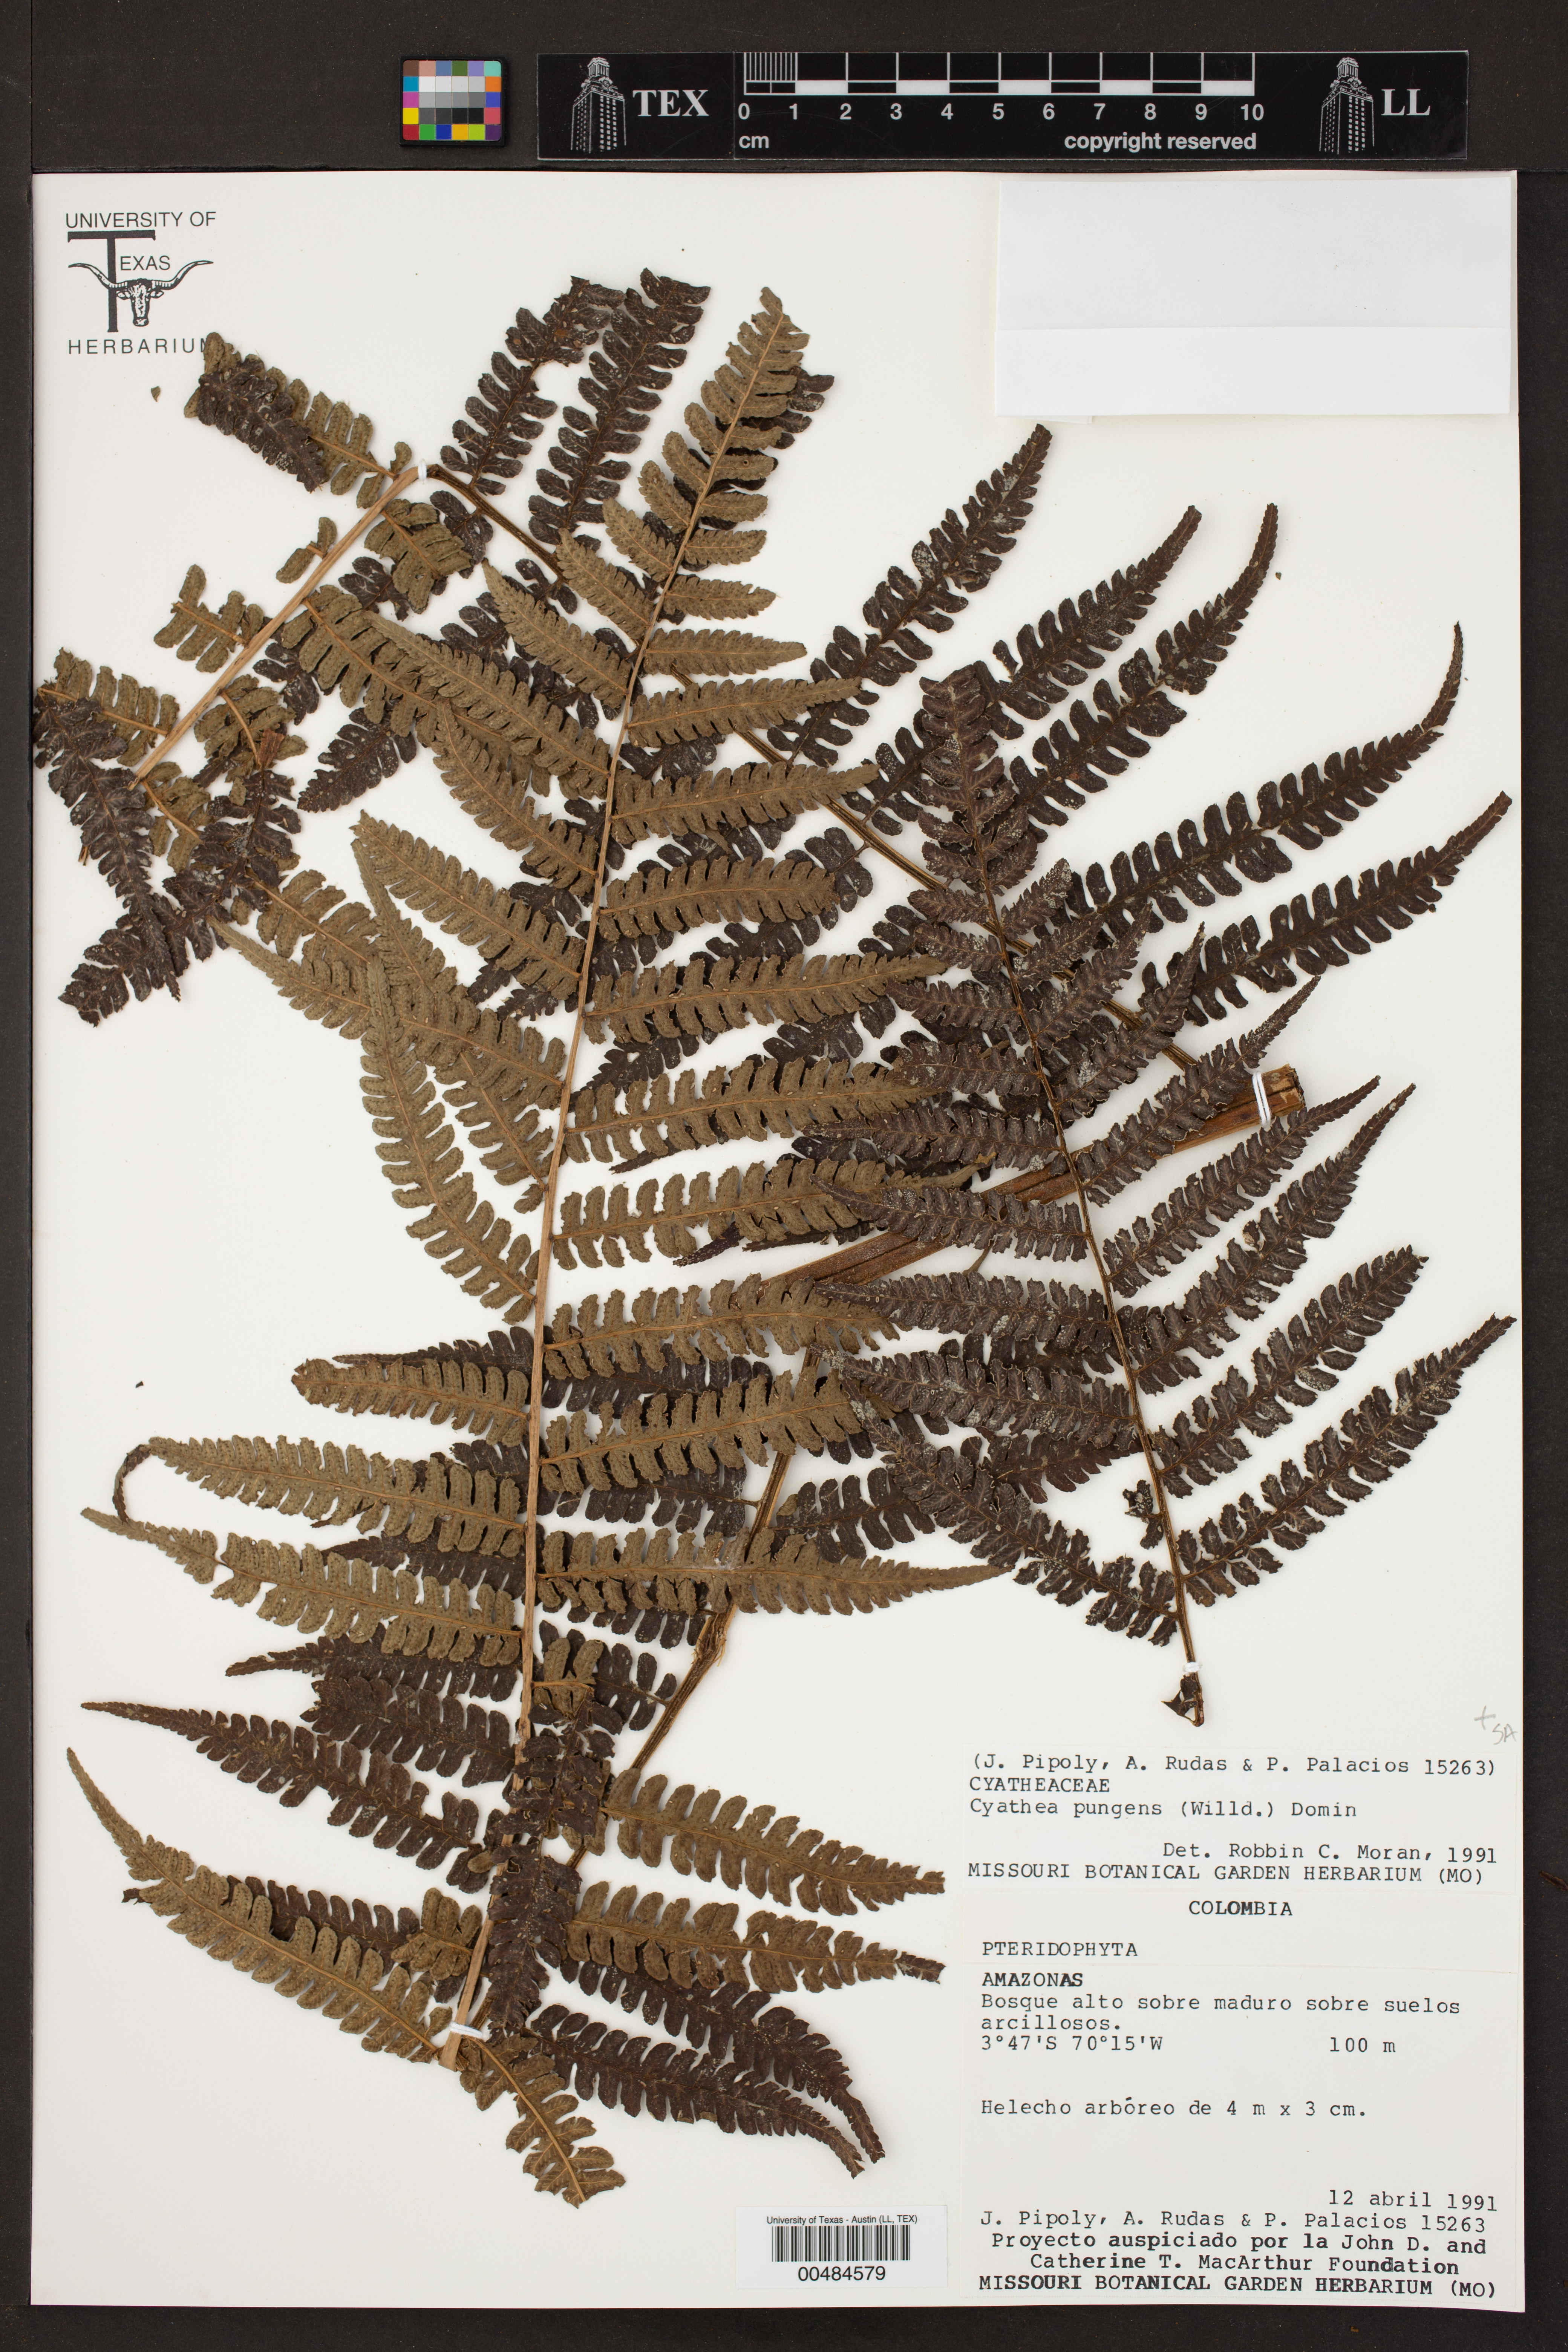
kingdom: Plantae
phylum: Tracheophyta
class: Polypodiopsida
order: Cyatheales
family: Cyatheaceae
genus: Cyathea
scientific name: Cyathea pungens
